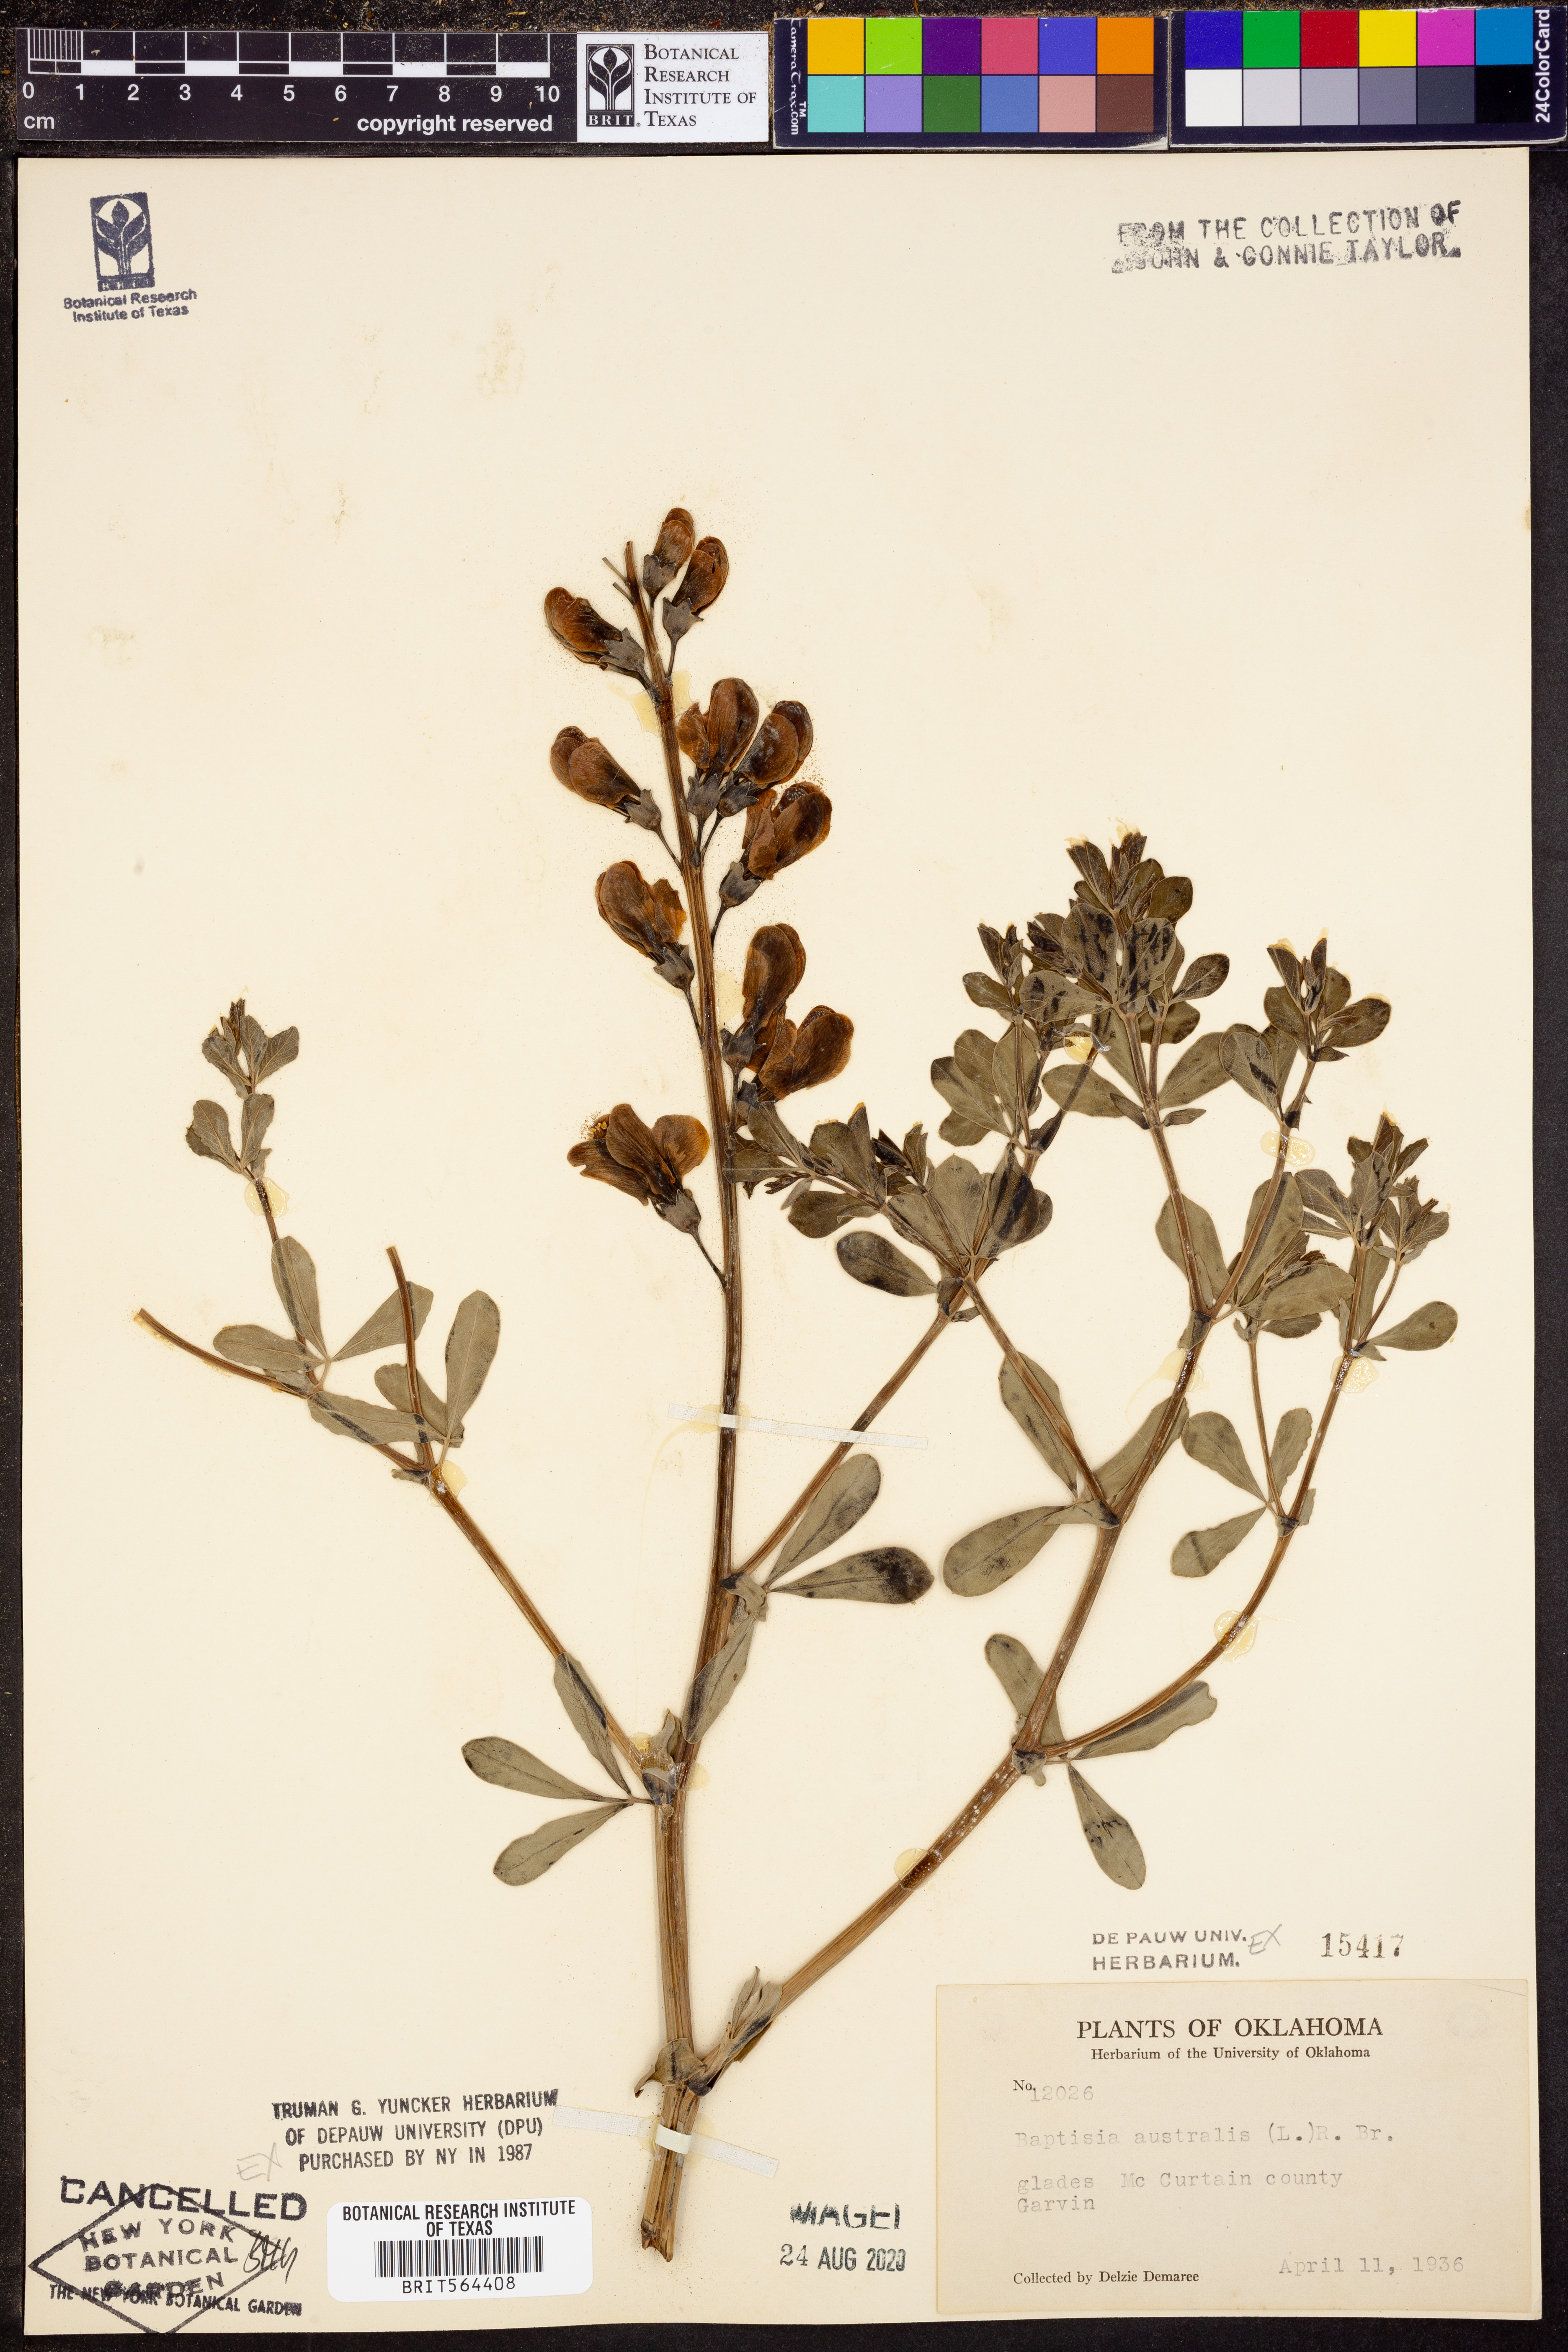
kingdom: Plantae
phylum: Tracheophyta
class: Magnoliopsida
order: Fabales
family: Fabaceae
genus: Baptisia
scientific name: Baptisia australis
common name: Blue false indigo
